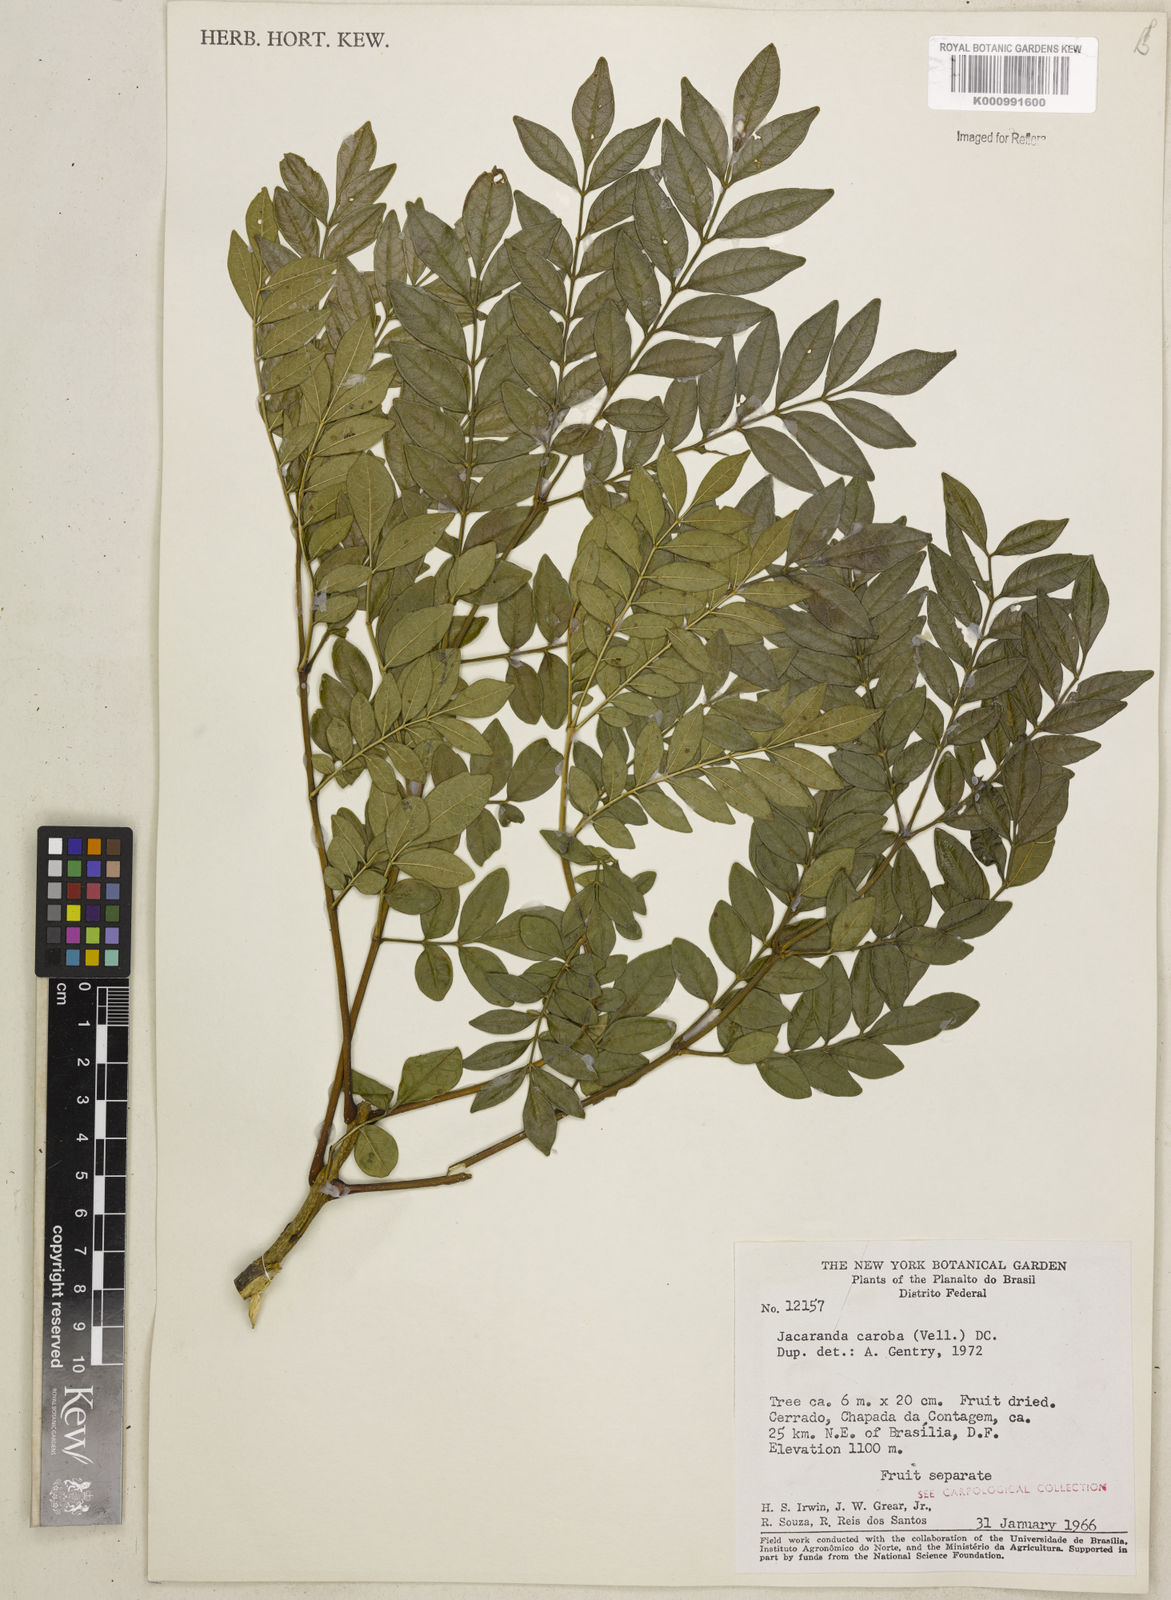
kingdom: Plantae
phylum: Tracheophyta
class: Magnoliopsida
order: Lamiales
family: Bignoniaceae
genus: Jacaranda
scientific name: Jacaranda caroba
